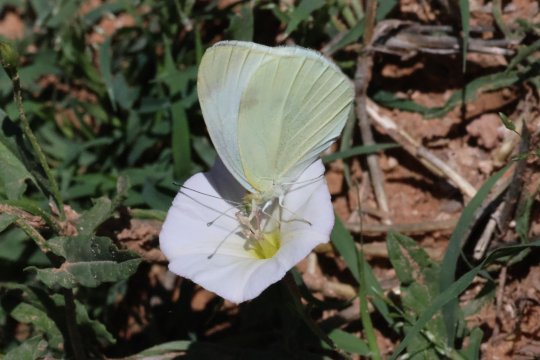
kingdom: Animalia
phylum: Arthropoda
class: Insecta
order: Lepidoptera
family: Pieridae
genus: Pieris
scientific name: Pieris rapae
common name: Cabbage White
